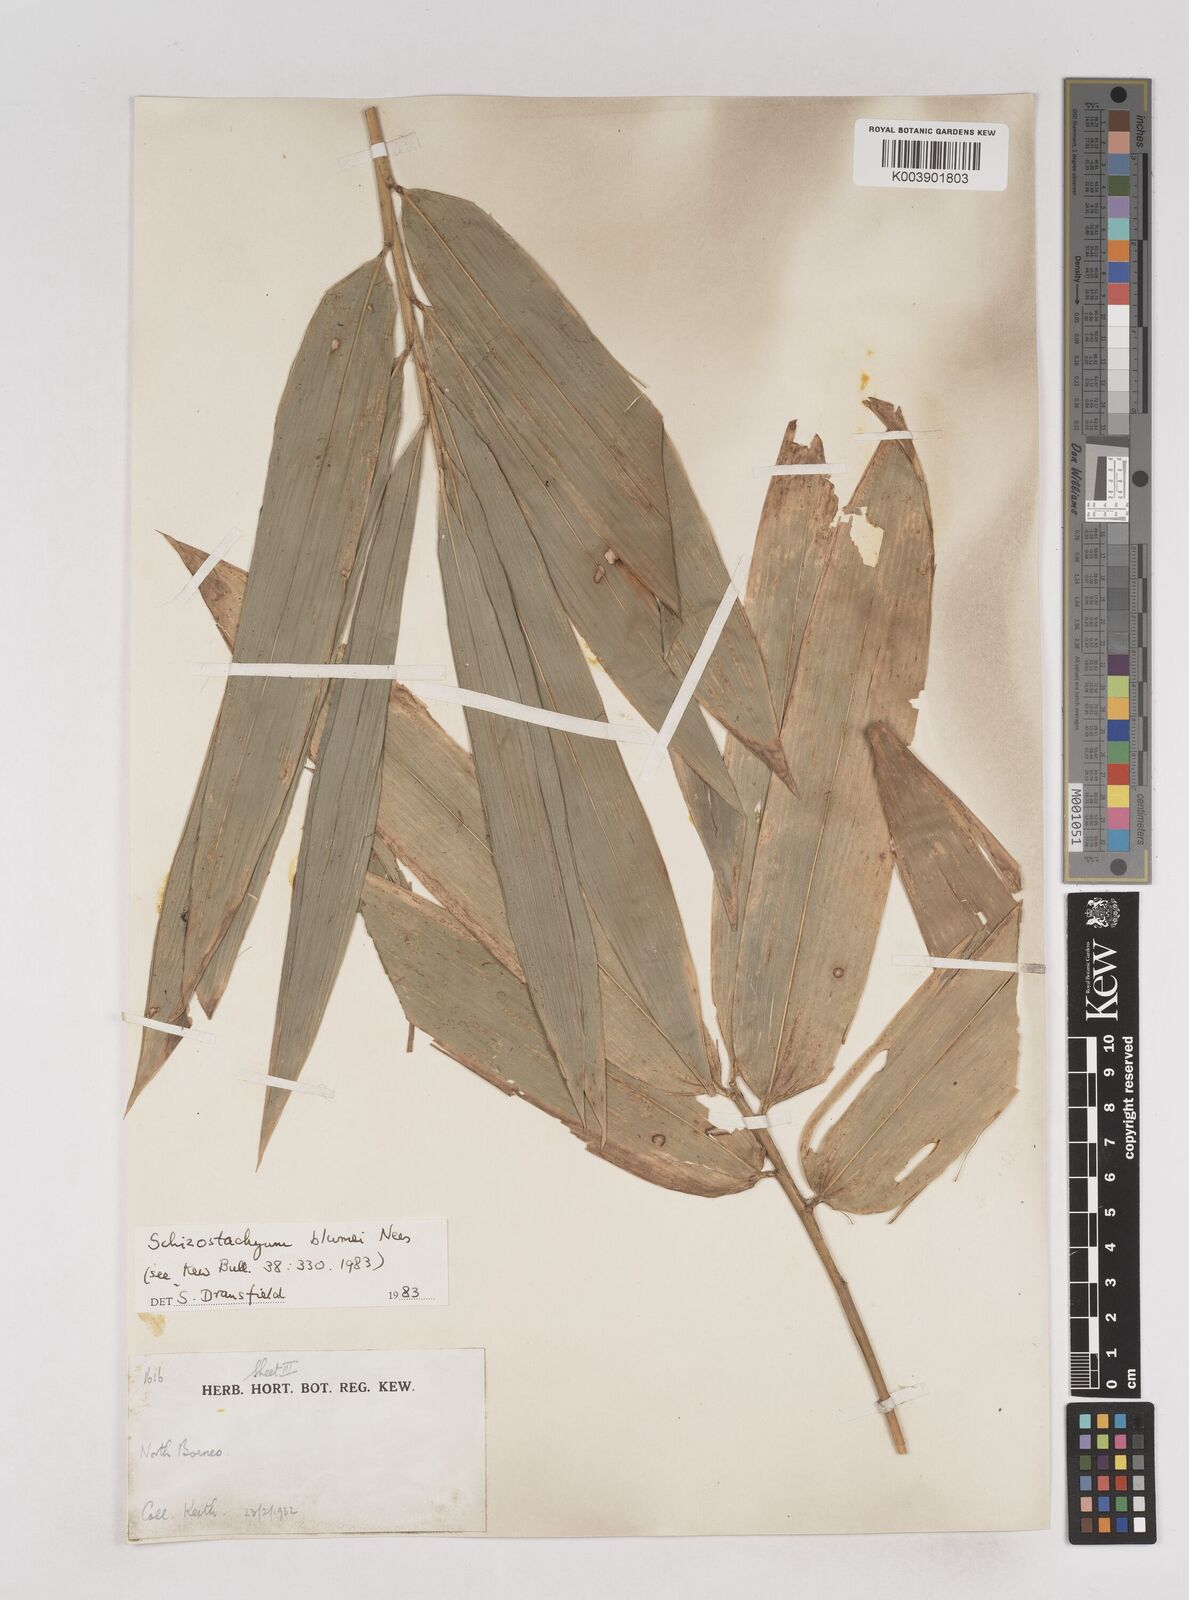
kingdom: Plantae
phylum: Tracheophyta
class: Liliopsida
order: Poales
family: Poaceae
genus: Schizostachyum
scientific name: Schizostachyum blumei
